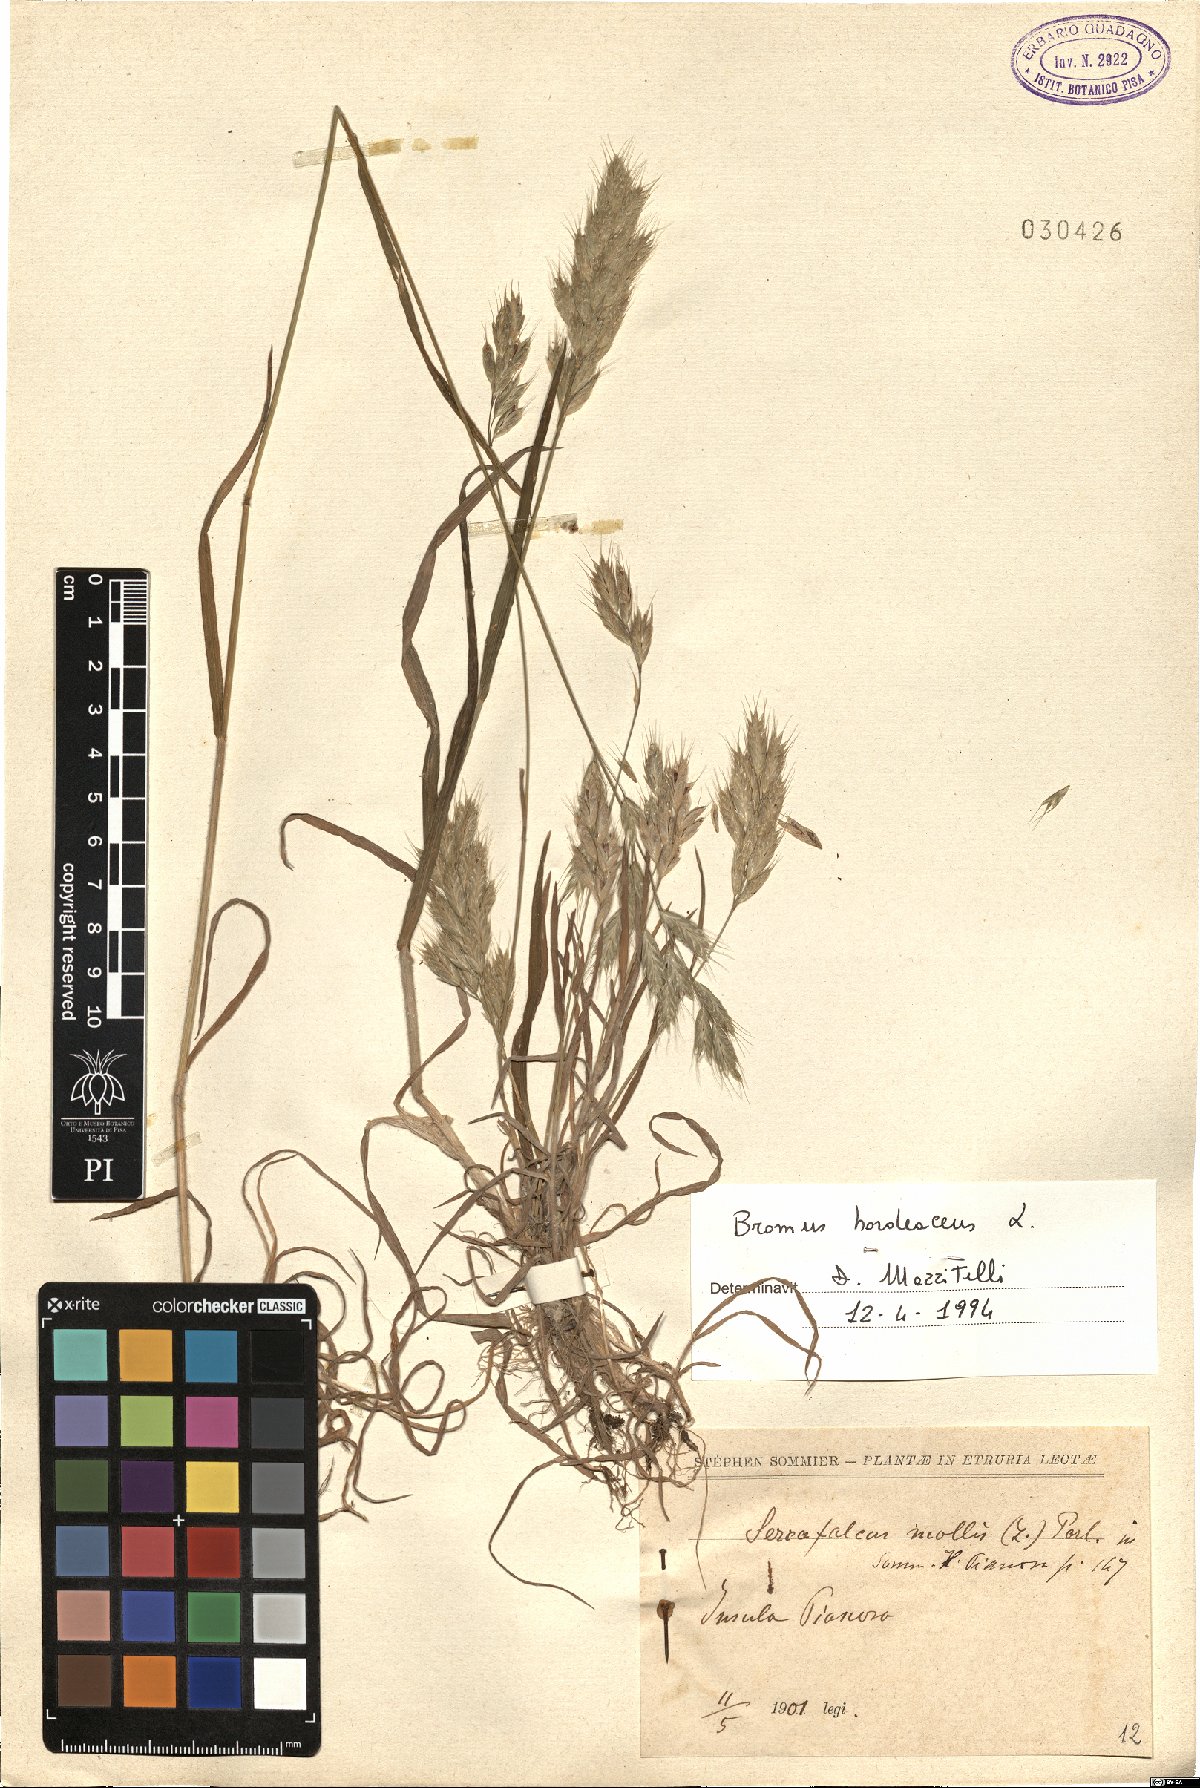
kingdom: Plantae
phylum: Tracheophyta
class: Liliopsida
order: Poales
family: Poaceae
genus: Bromus
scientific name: Bromus hordeaceus
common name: Soft brome
